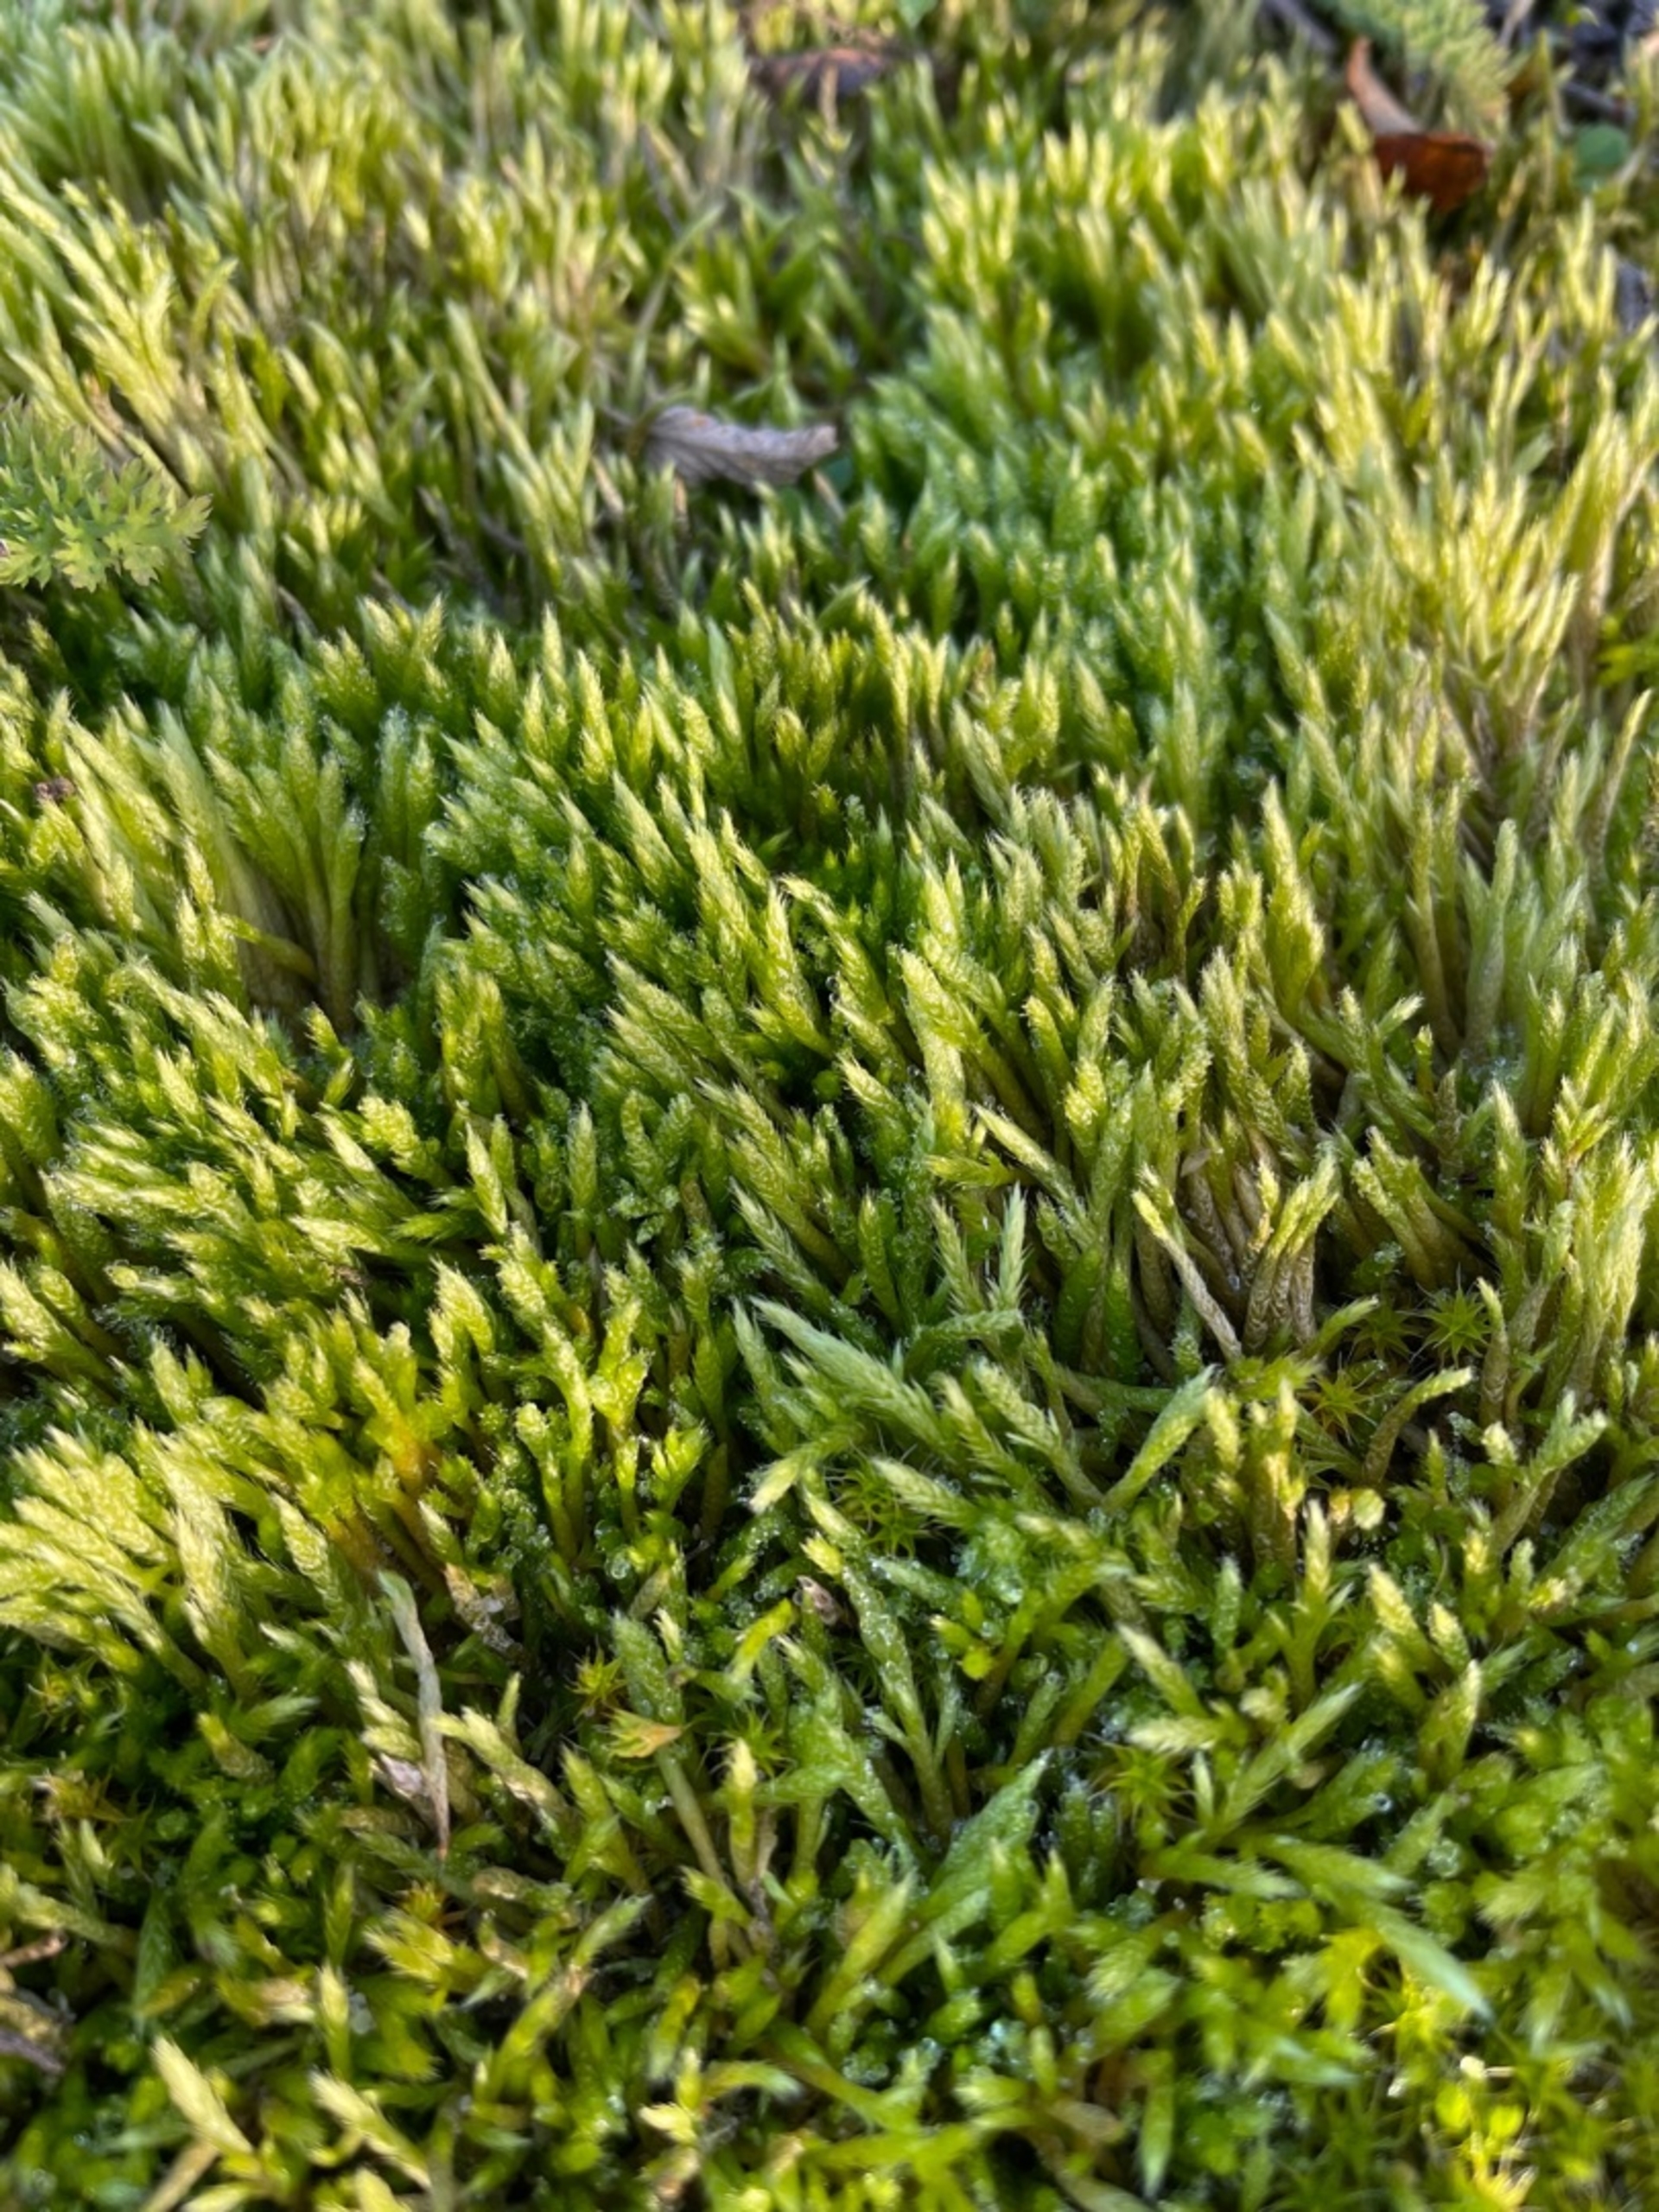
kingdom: Plantae
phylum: Bryophyta
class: Bryopsida
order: Hypnales
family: Brachytheciaceae
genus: Brachythecium
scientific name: Brachythecium albicans
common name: Hvidlig kortkapsel
